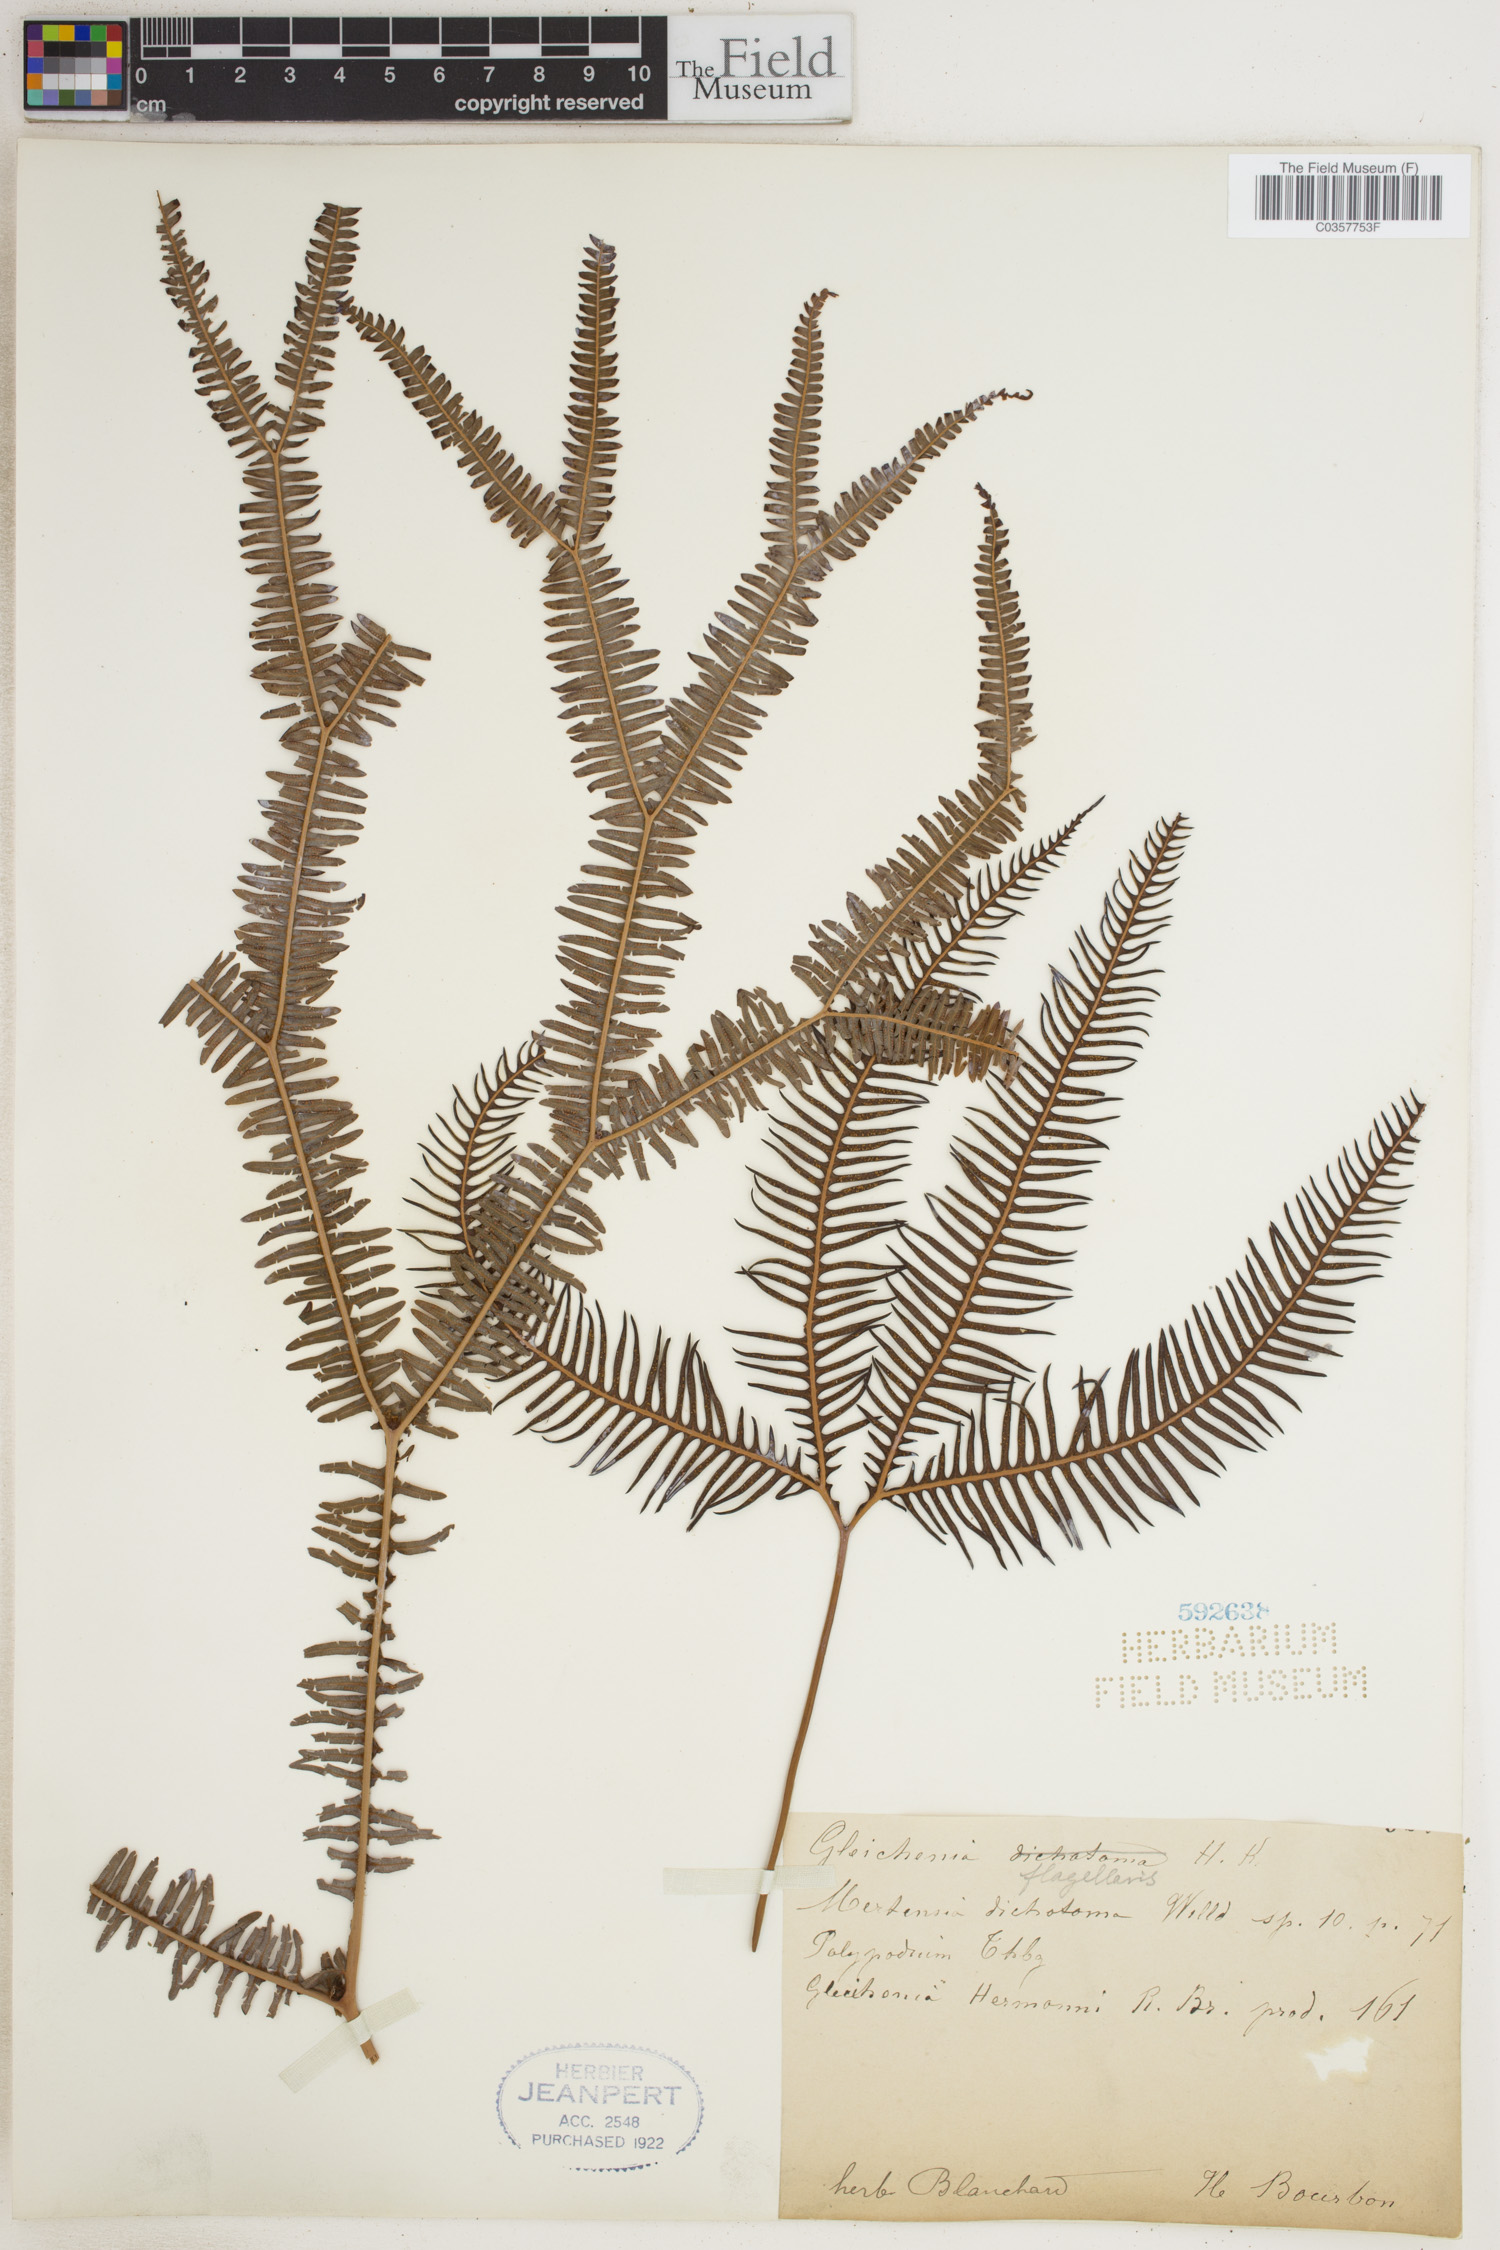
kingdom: Plantae
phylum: Tracheophyta
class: Polypodiopsida
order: Gleicheniales
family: Gleicheniaceae
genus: Sticherus
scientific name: Sticherus flagellaris
